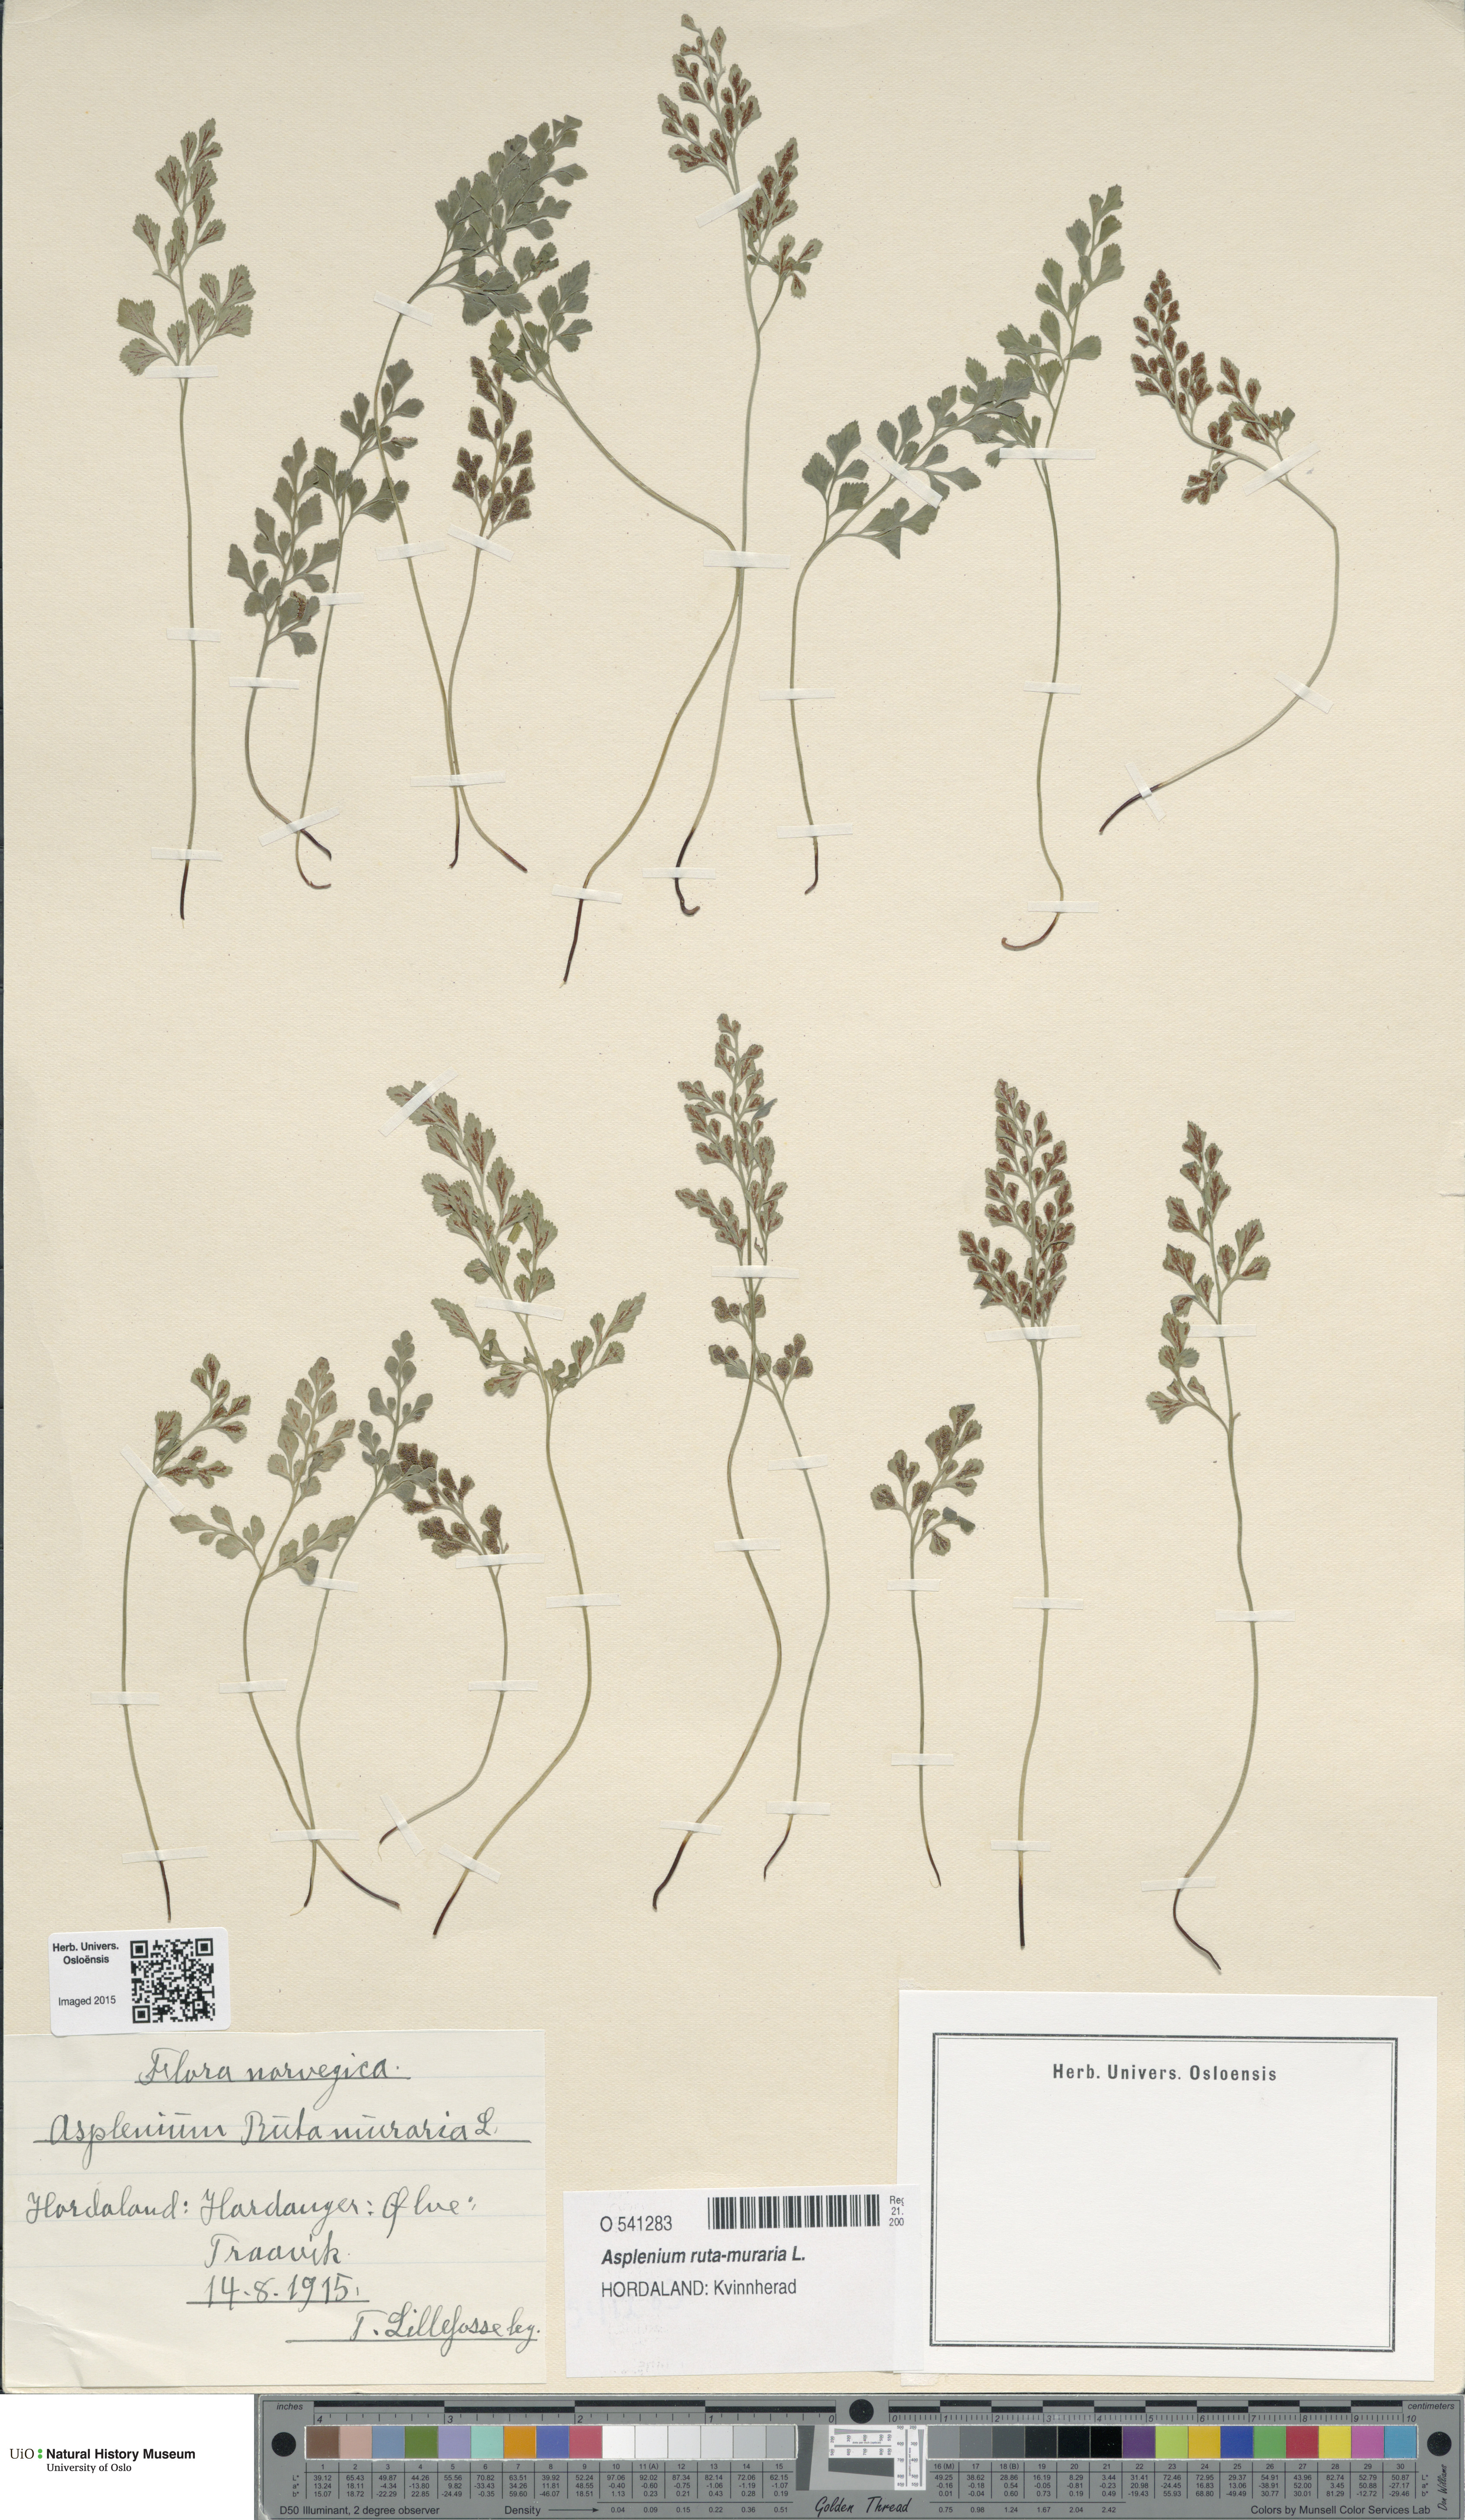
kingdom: Plantae
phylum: Tracheophyta
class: Polypodiopsida
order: Polypodiales
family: Aspleniaceae
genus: Asplenium
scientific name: Asplenium ruta-muraria
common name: Wall-rue
